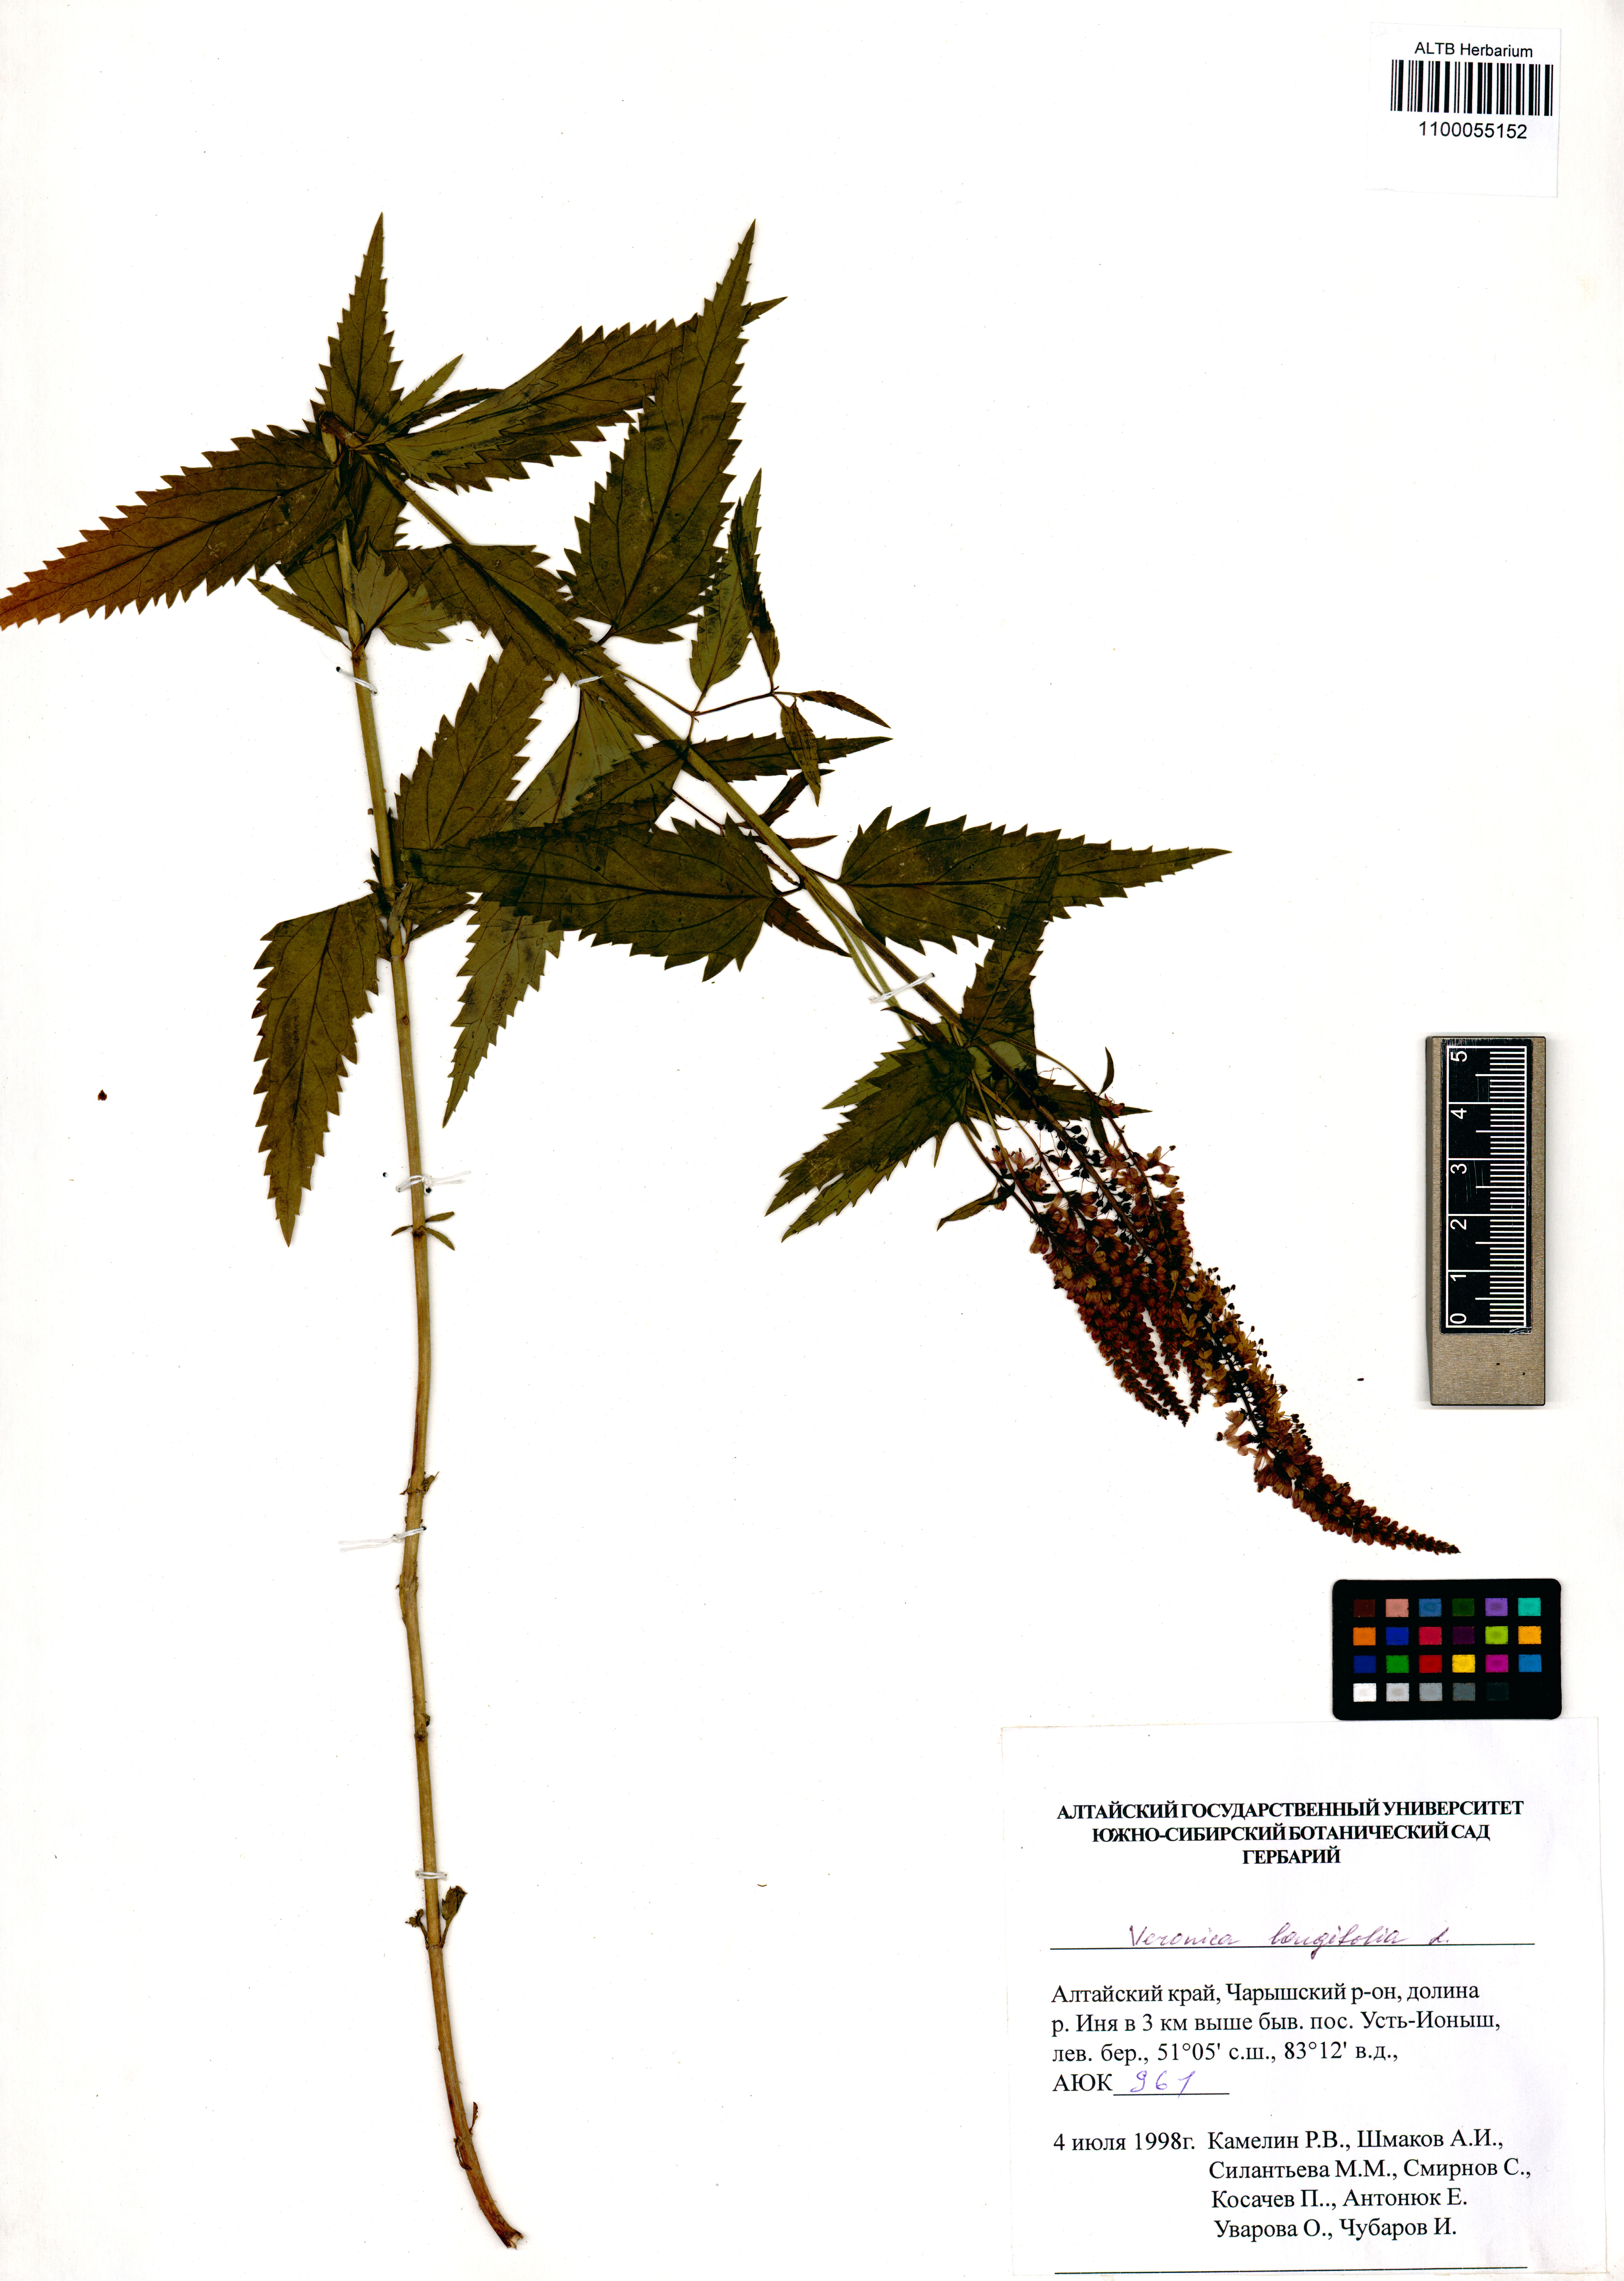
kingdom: Plantae
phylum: Tracheophyta
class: Magnoliopsida
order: Lamiales
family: Plantaginaceae
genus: Veronica
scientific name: Veronica longifolia
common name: Garden speedwell
